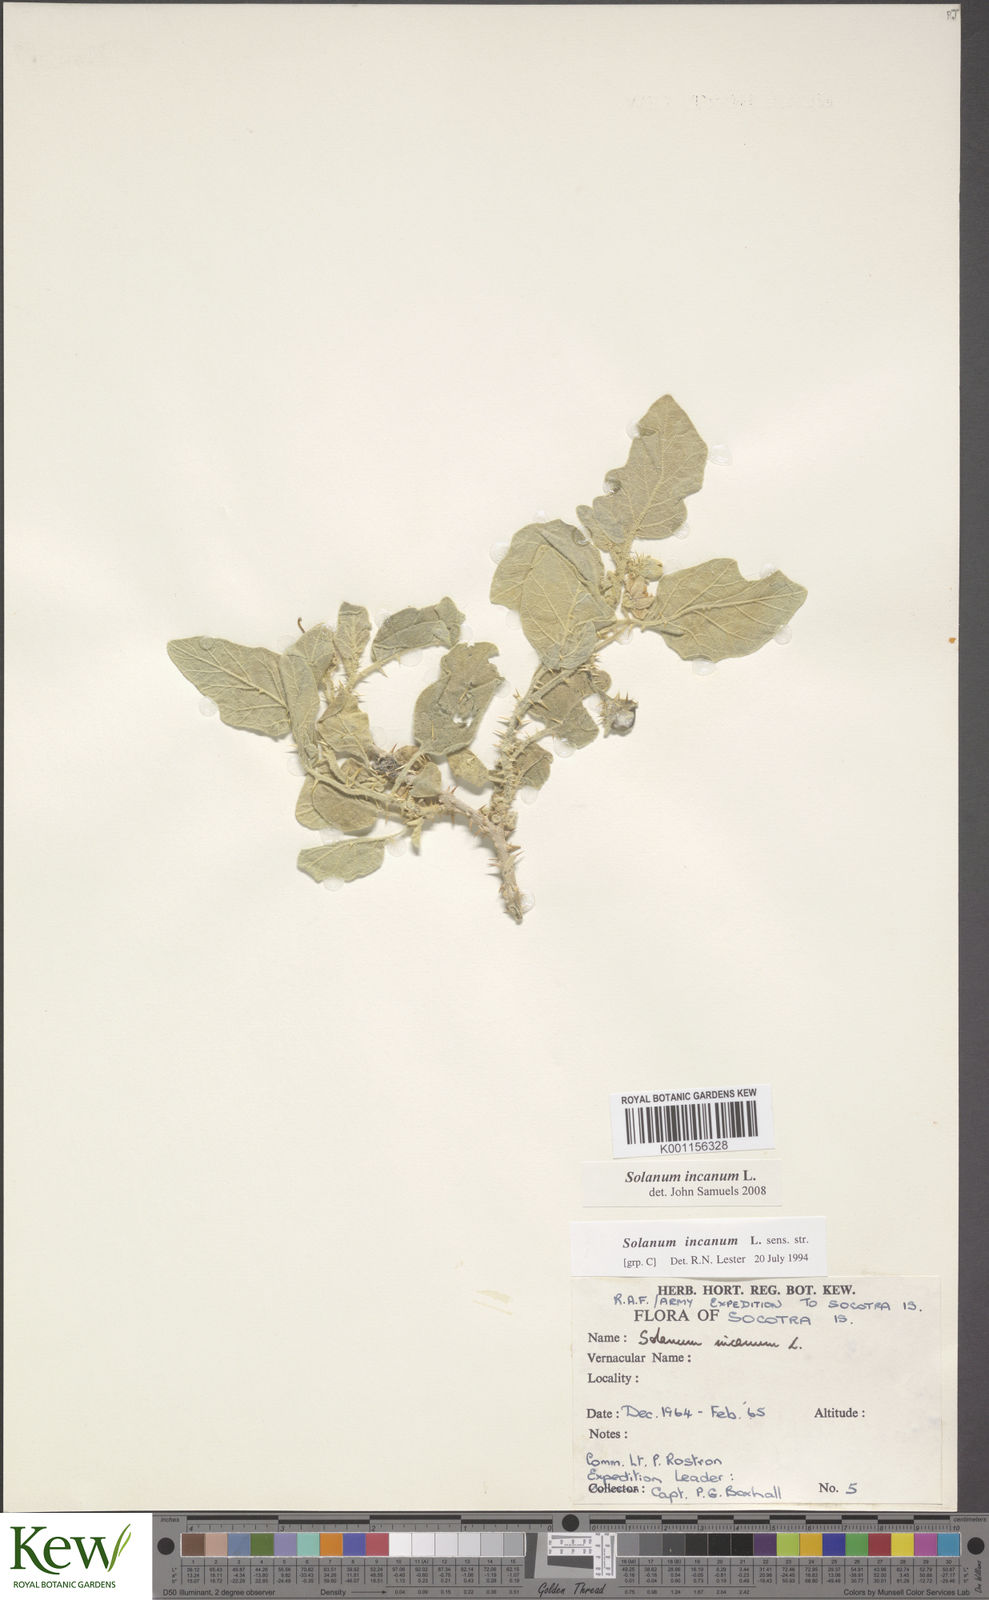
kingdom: Plantae
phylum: Tracheophyta
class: Magnoliopsida
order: Solanales
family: Solanaceae
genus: Solanum
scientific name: Solanum incanum
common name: Bitter apple
